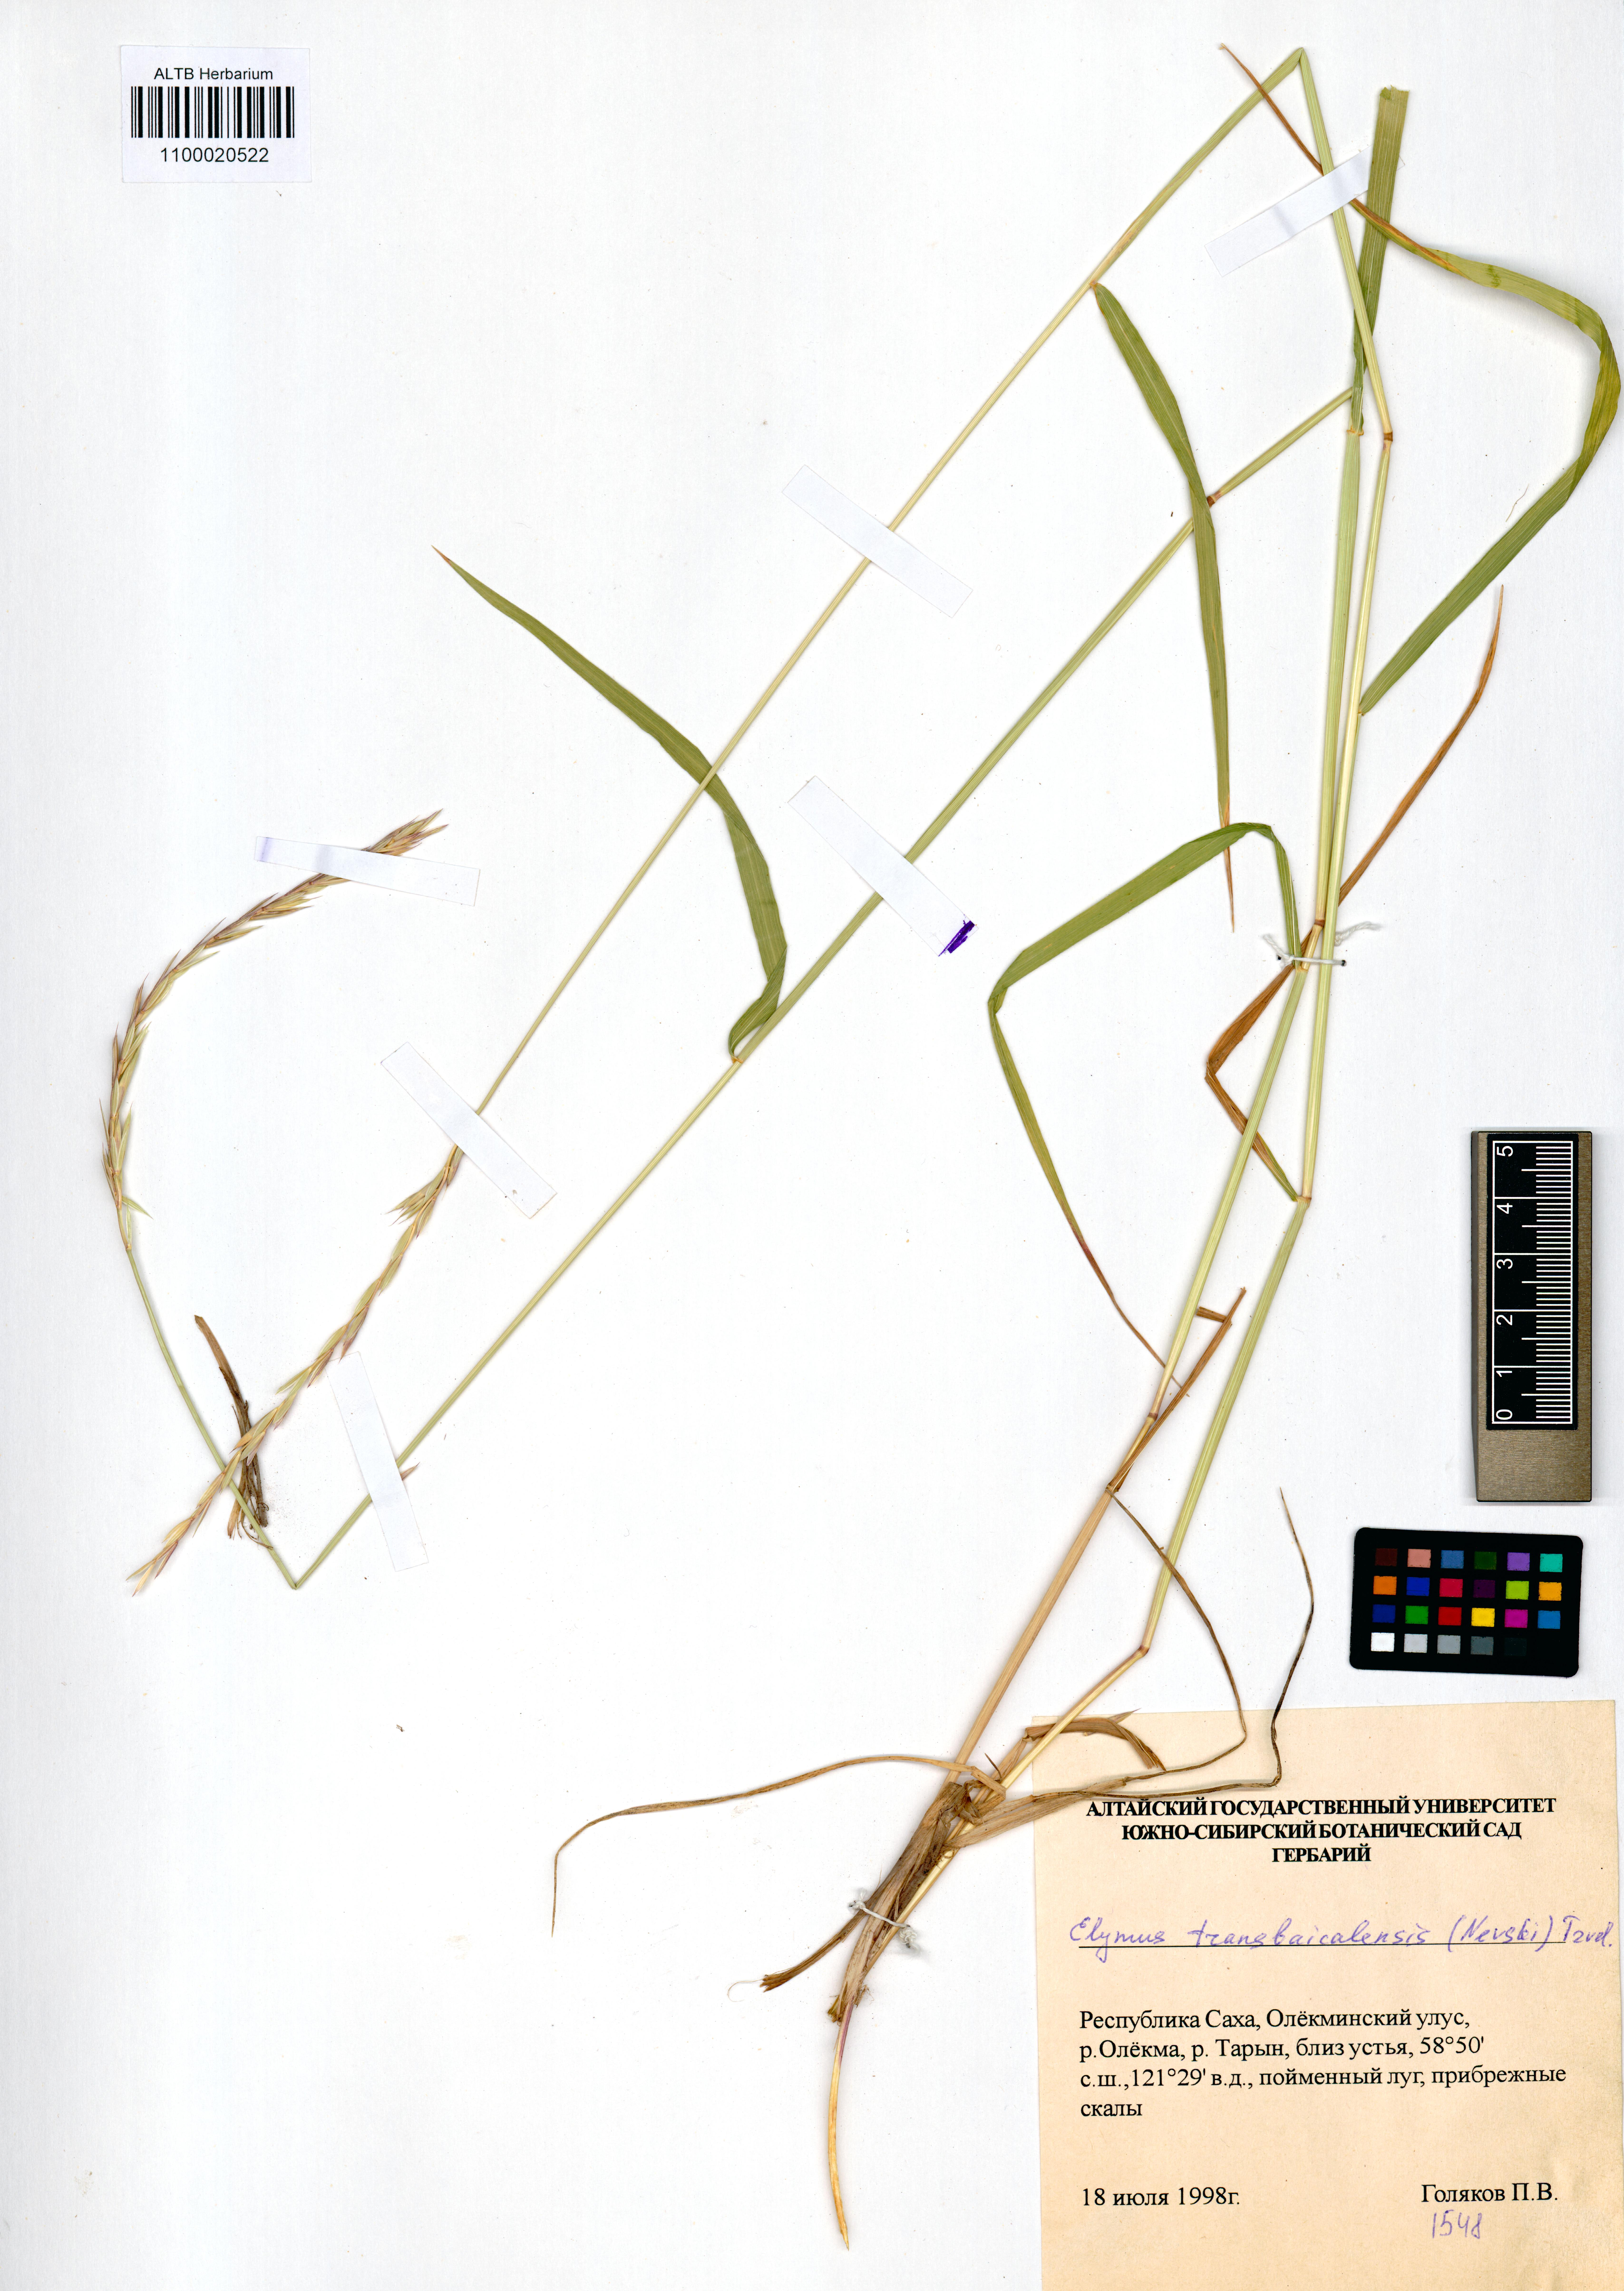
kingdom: Plantae
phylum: Tracheophyta
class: Liliopsida
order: Poales
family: Poaceae
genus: Elymus
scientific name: Elymus mutabilis
